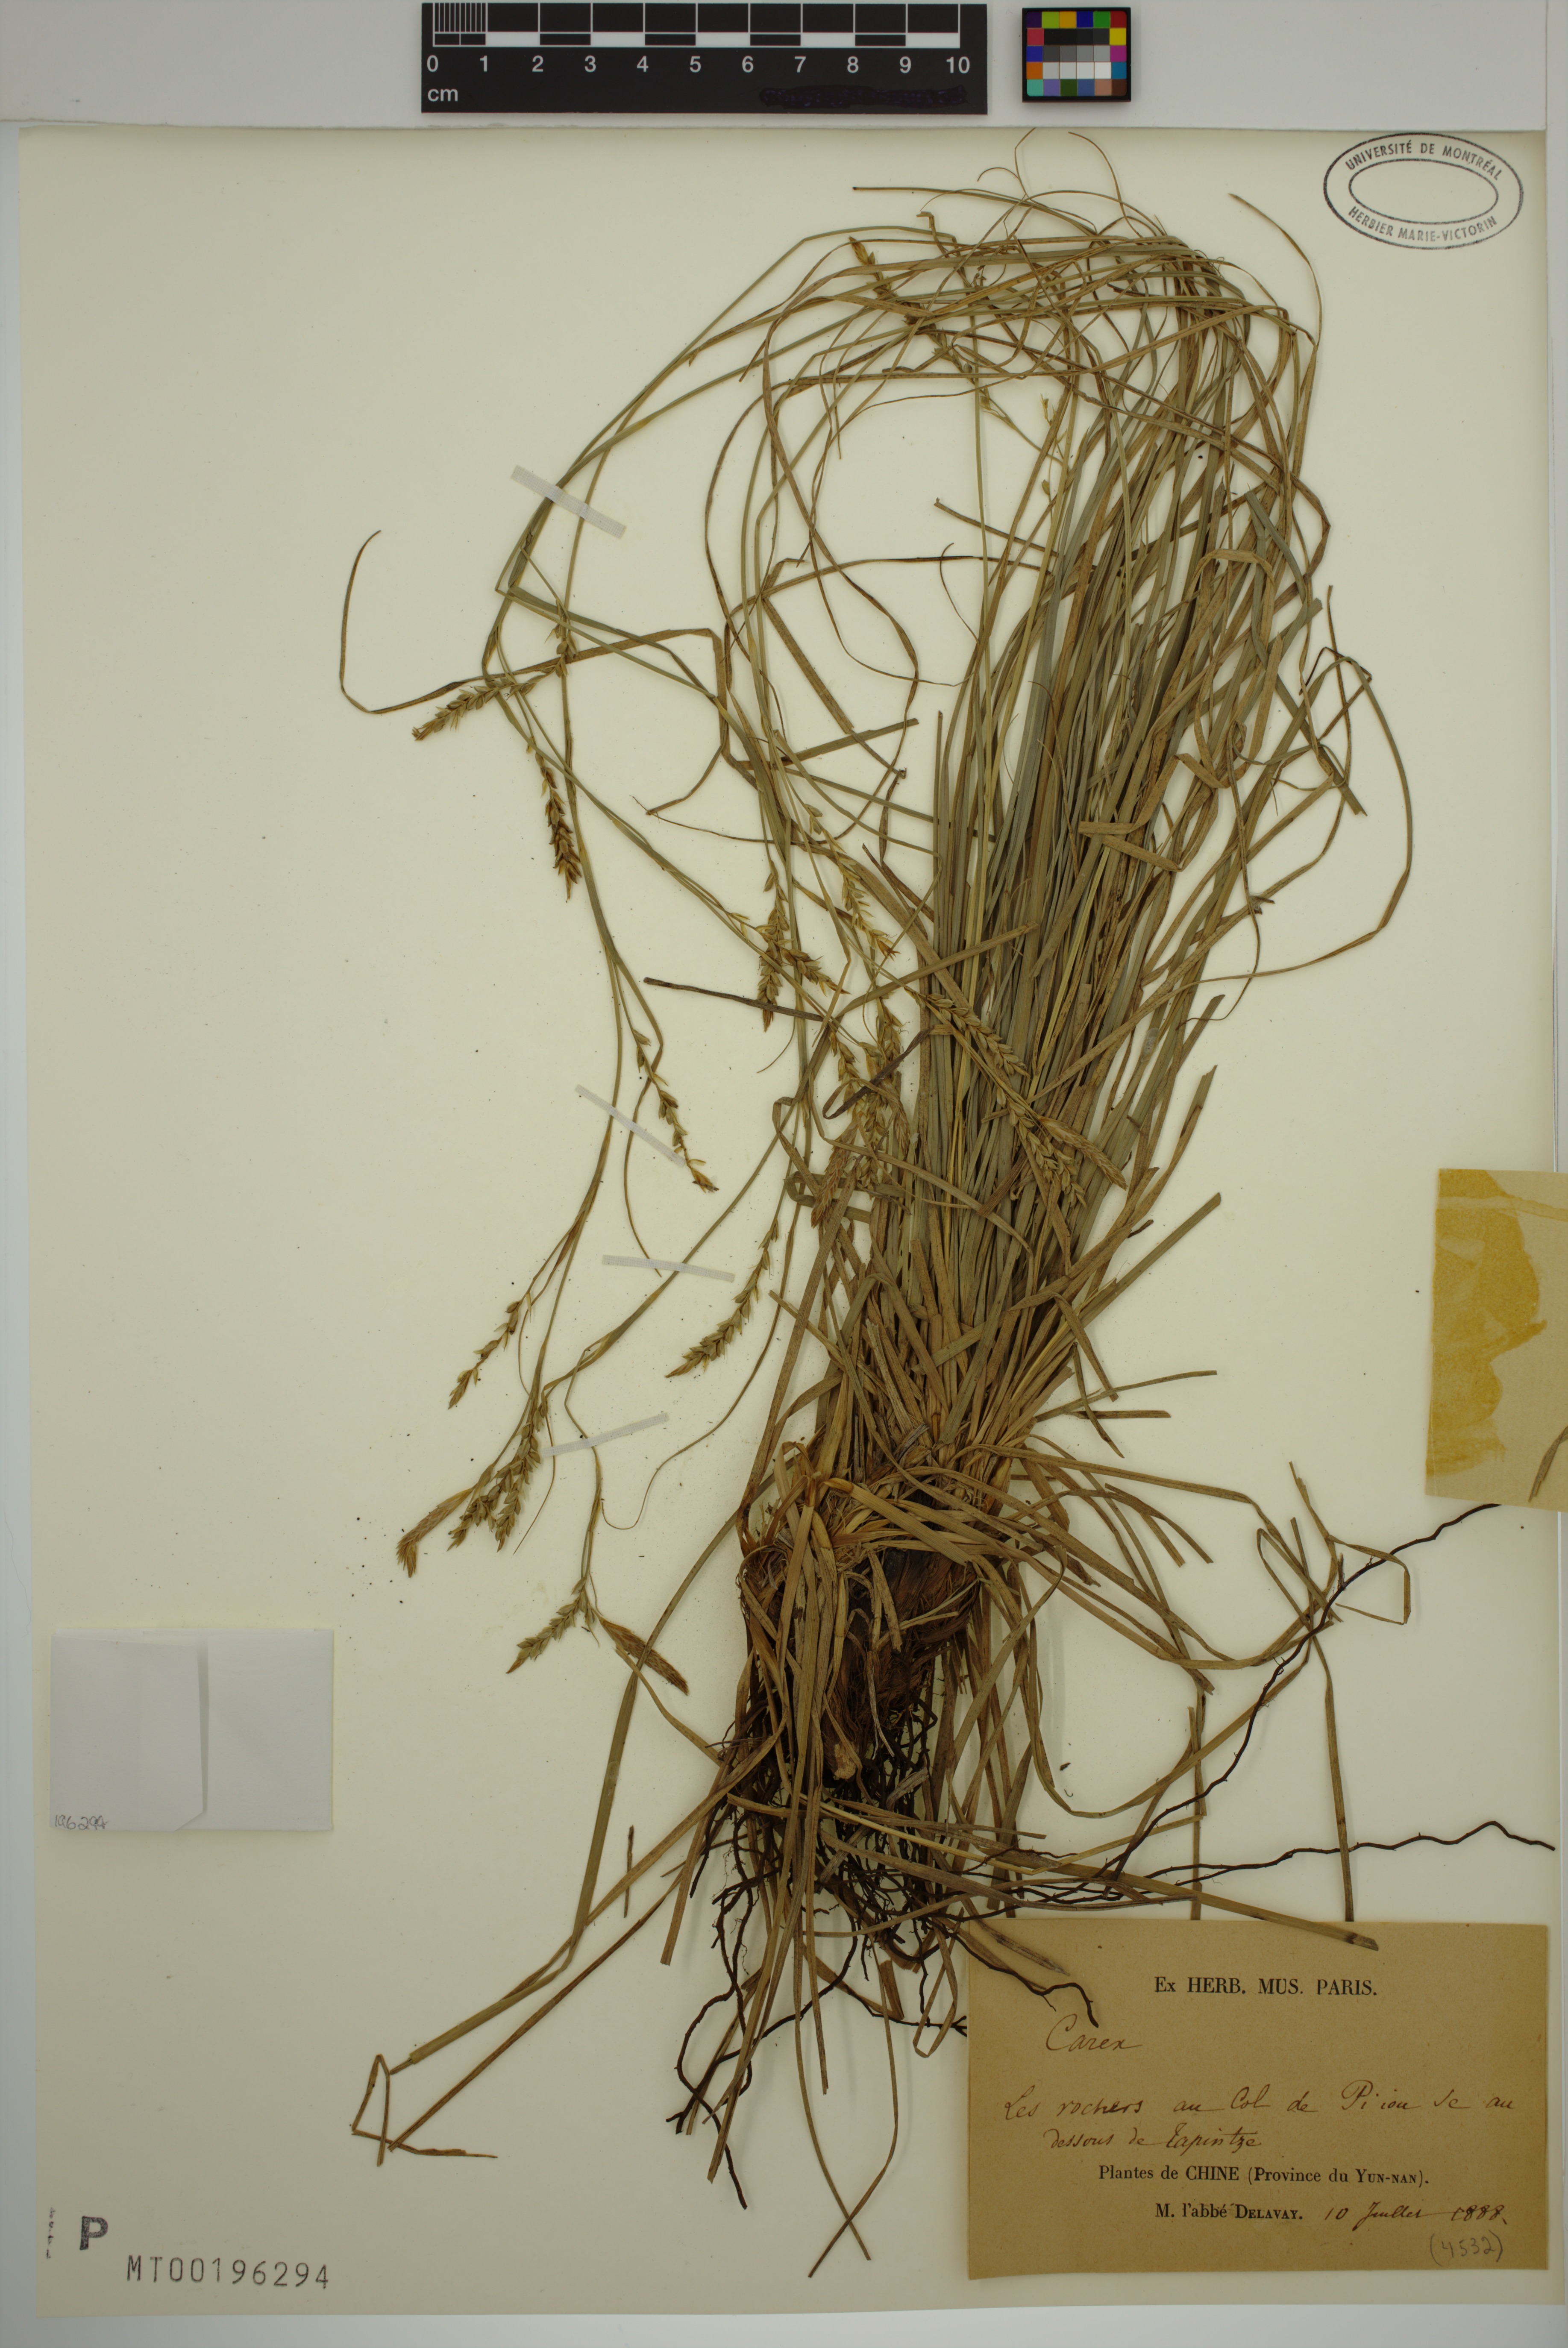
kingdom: Plantae
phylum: Tracheophyta
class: Liliopsida
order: Poales
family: Cyperaceae
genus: Carex
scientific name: Carex tapintzensis
